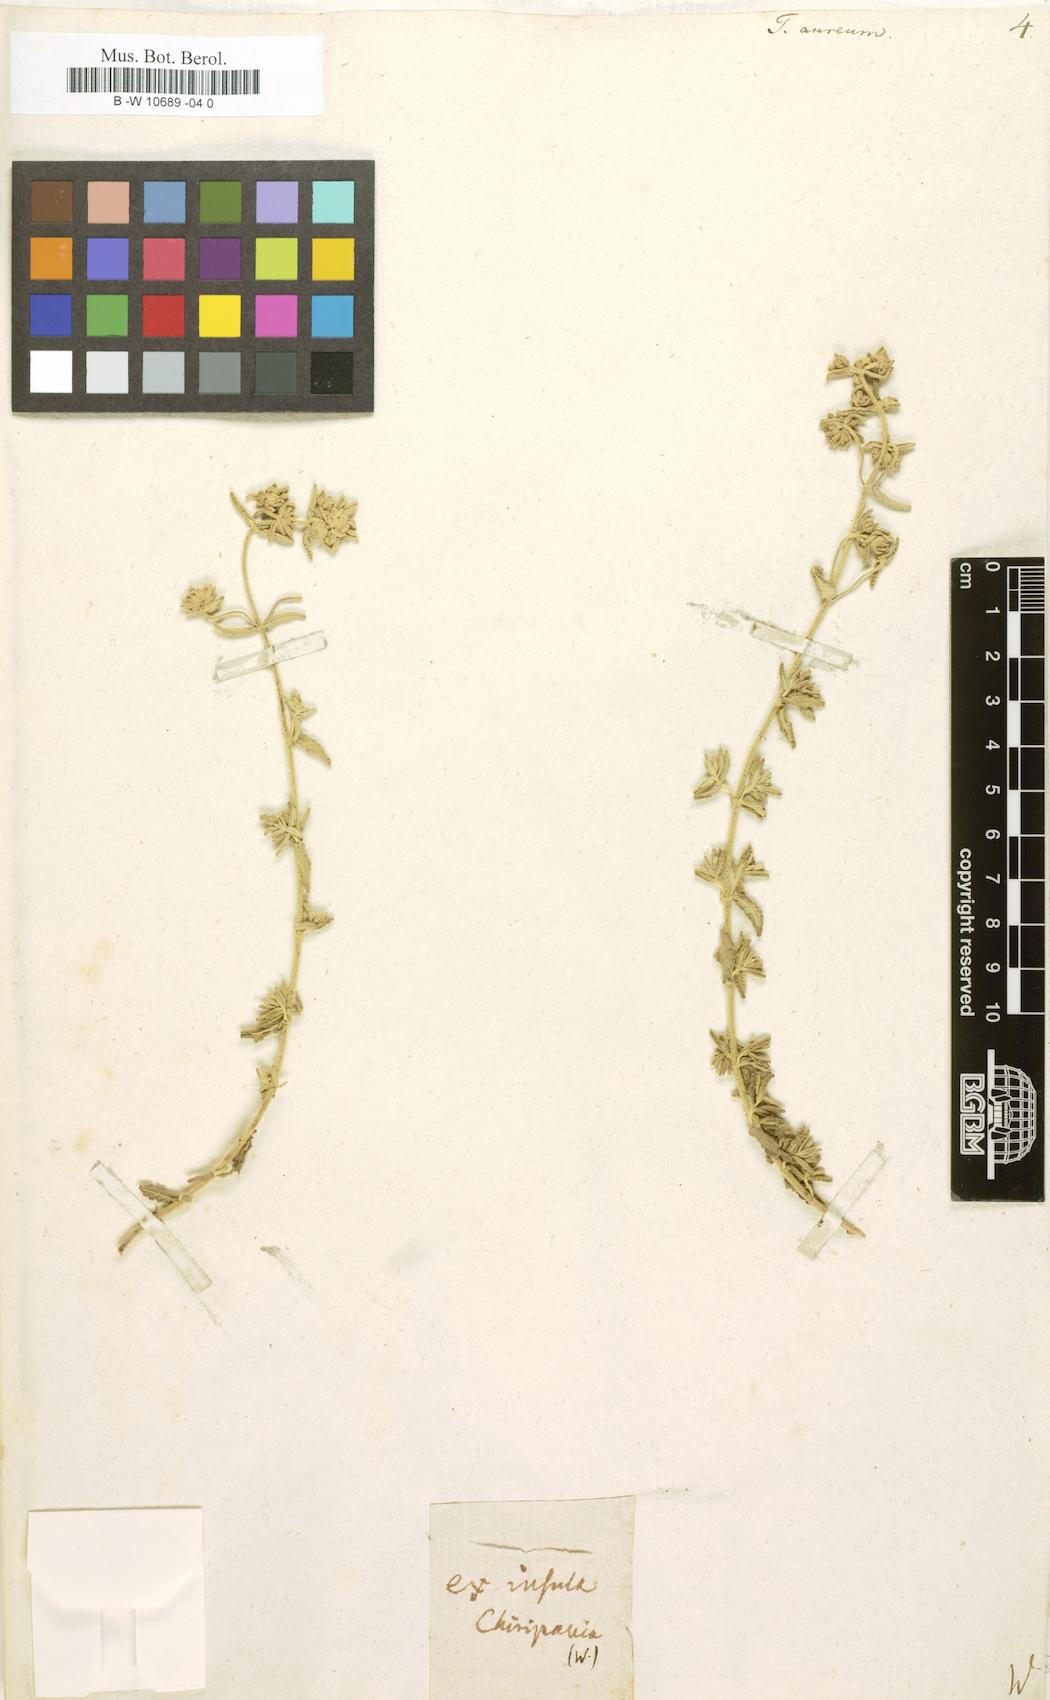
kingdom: Plantae
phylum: Tracheophyta
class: Magnoliopsida
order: Lamiales
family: Lamiaceae
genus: Teucrium
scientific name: Teucrium aureum
